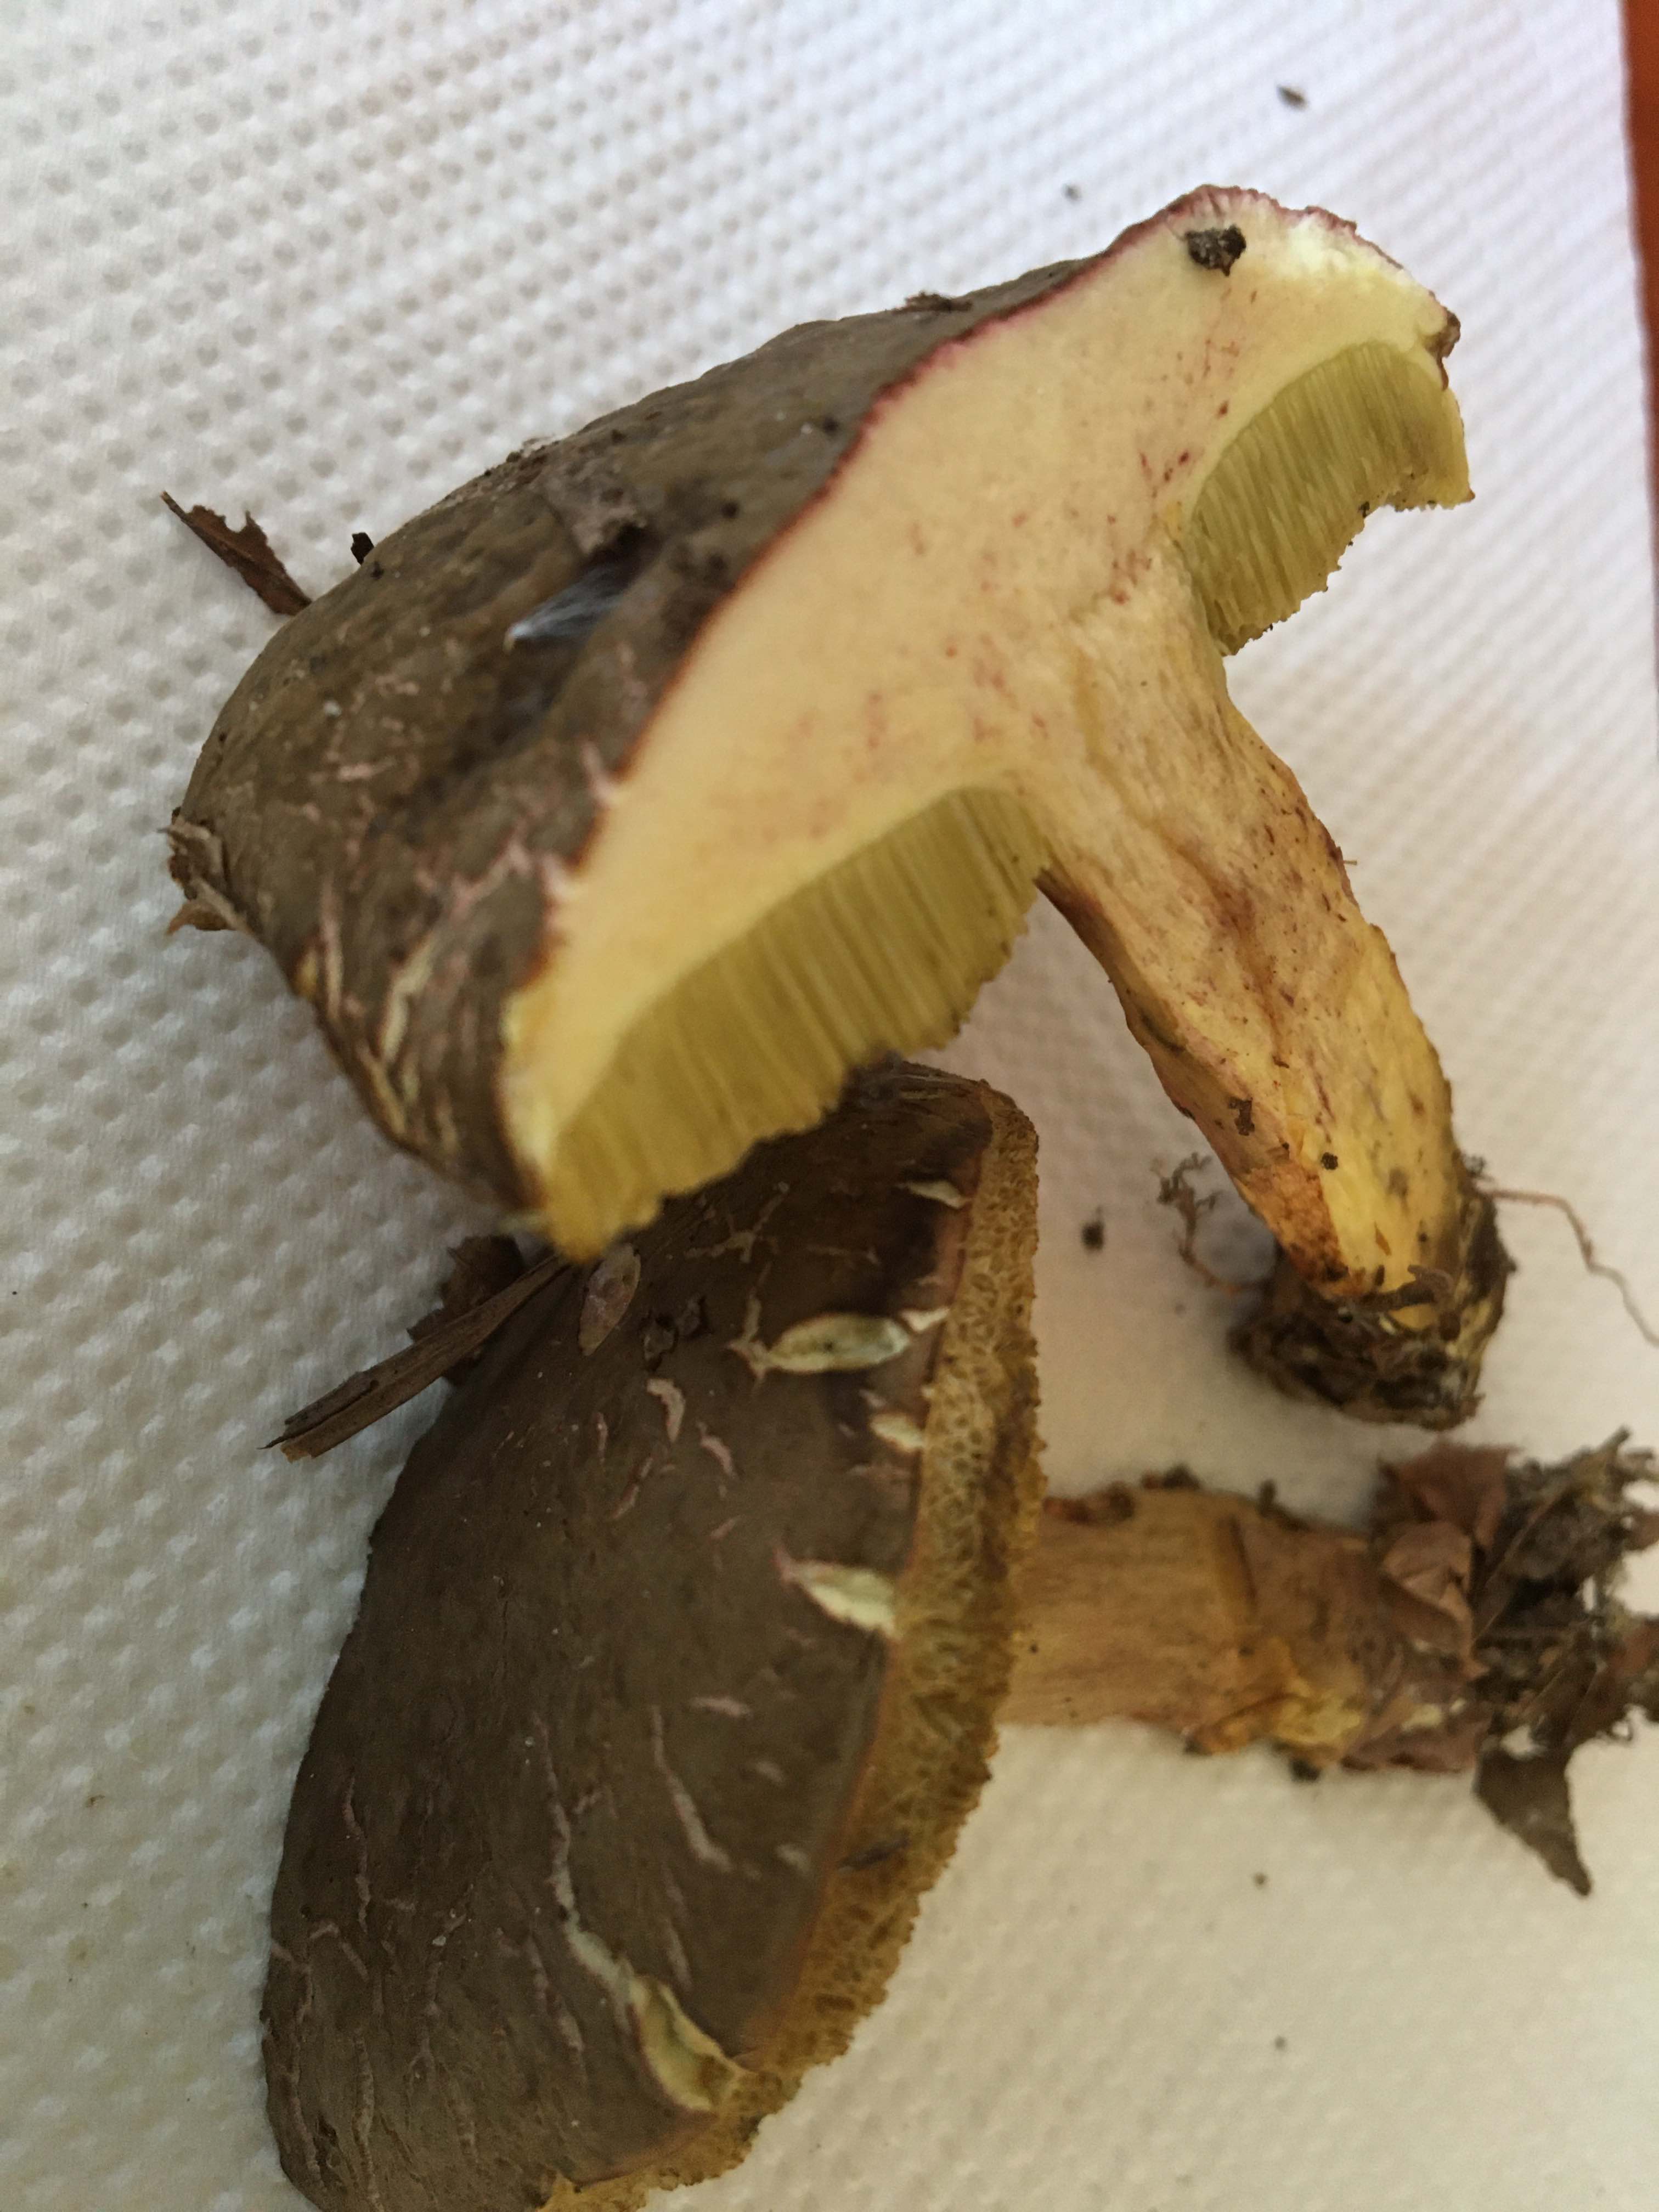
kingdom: Fungi
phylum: Basidiomycota
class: Agaricomycetes
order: Boletales
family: Boletaceae
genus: Xerocomellus
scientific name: Xerocomellus
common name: dværgrørhat
